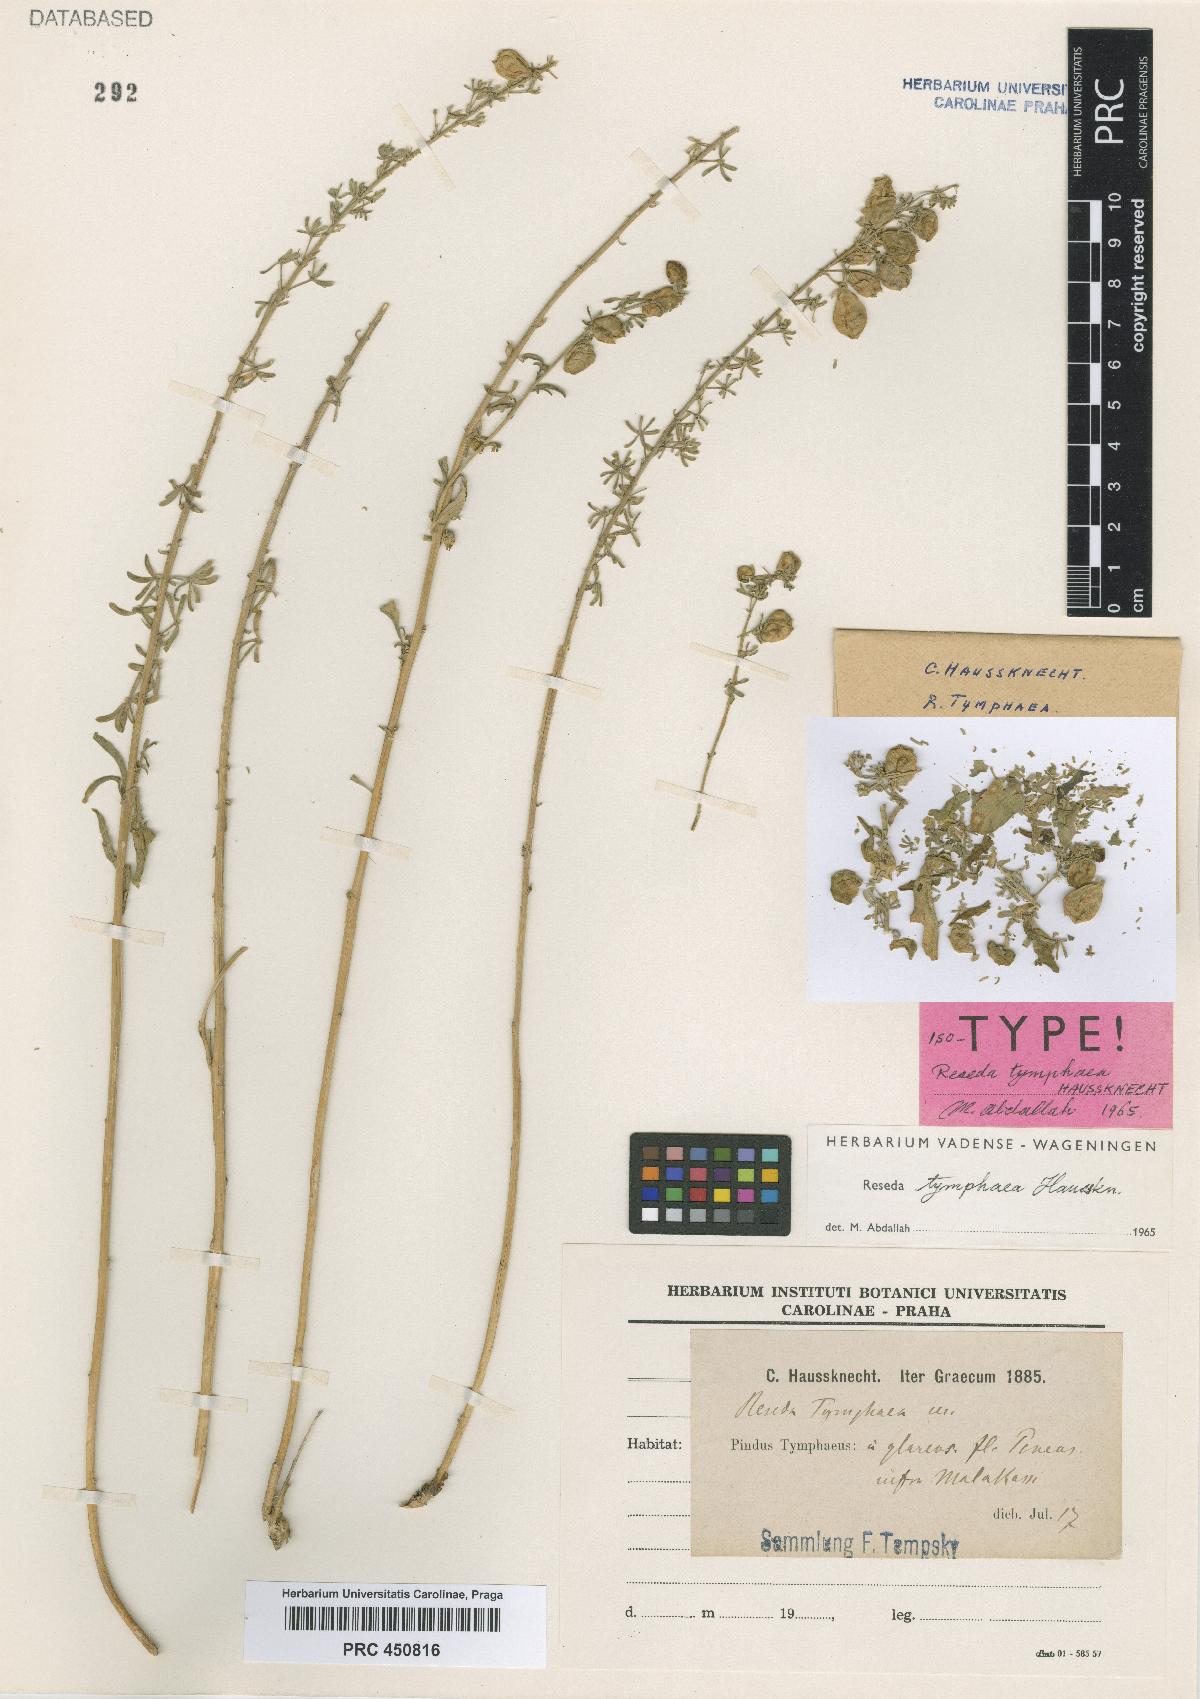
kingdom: Plantae
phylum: Tracheophyta
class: Magnoliopsida
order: Brassicales
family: Resedaceae
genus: Reseda
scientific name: Reseda tymphaea
